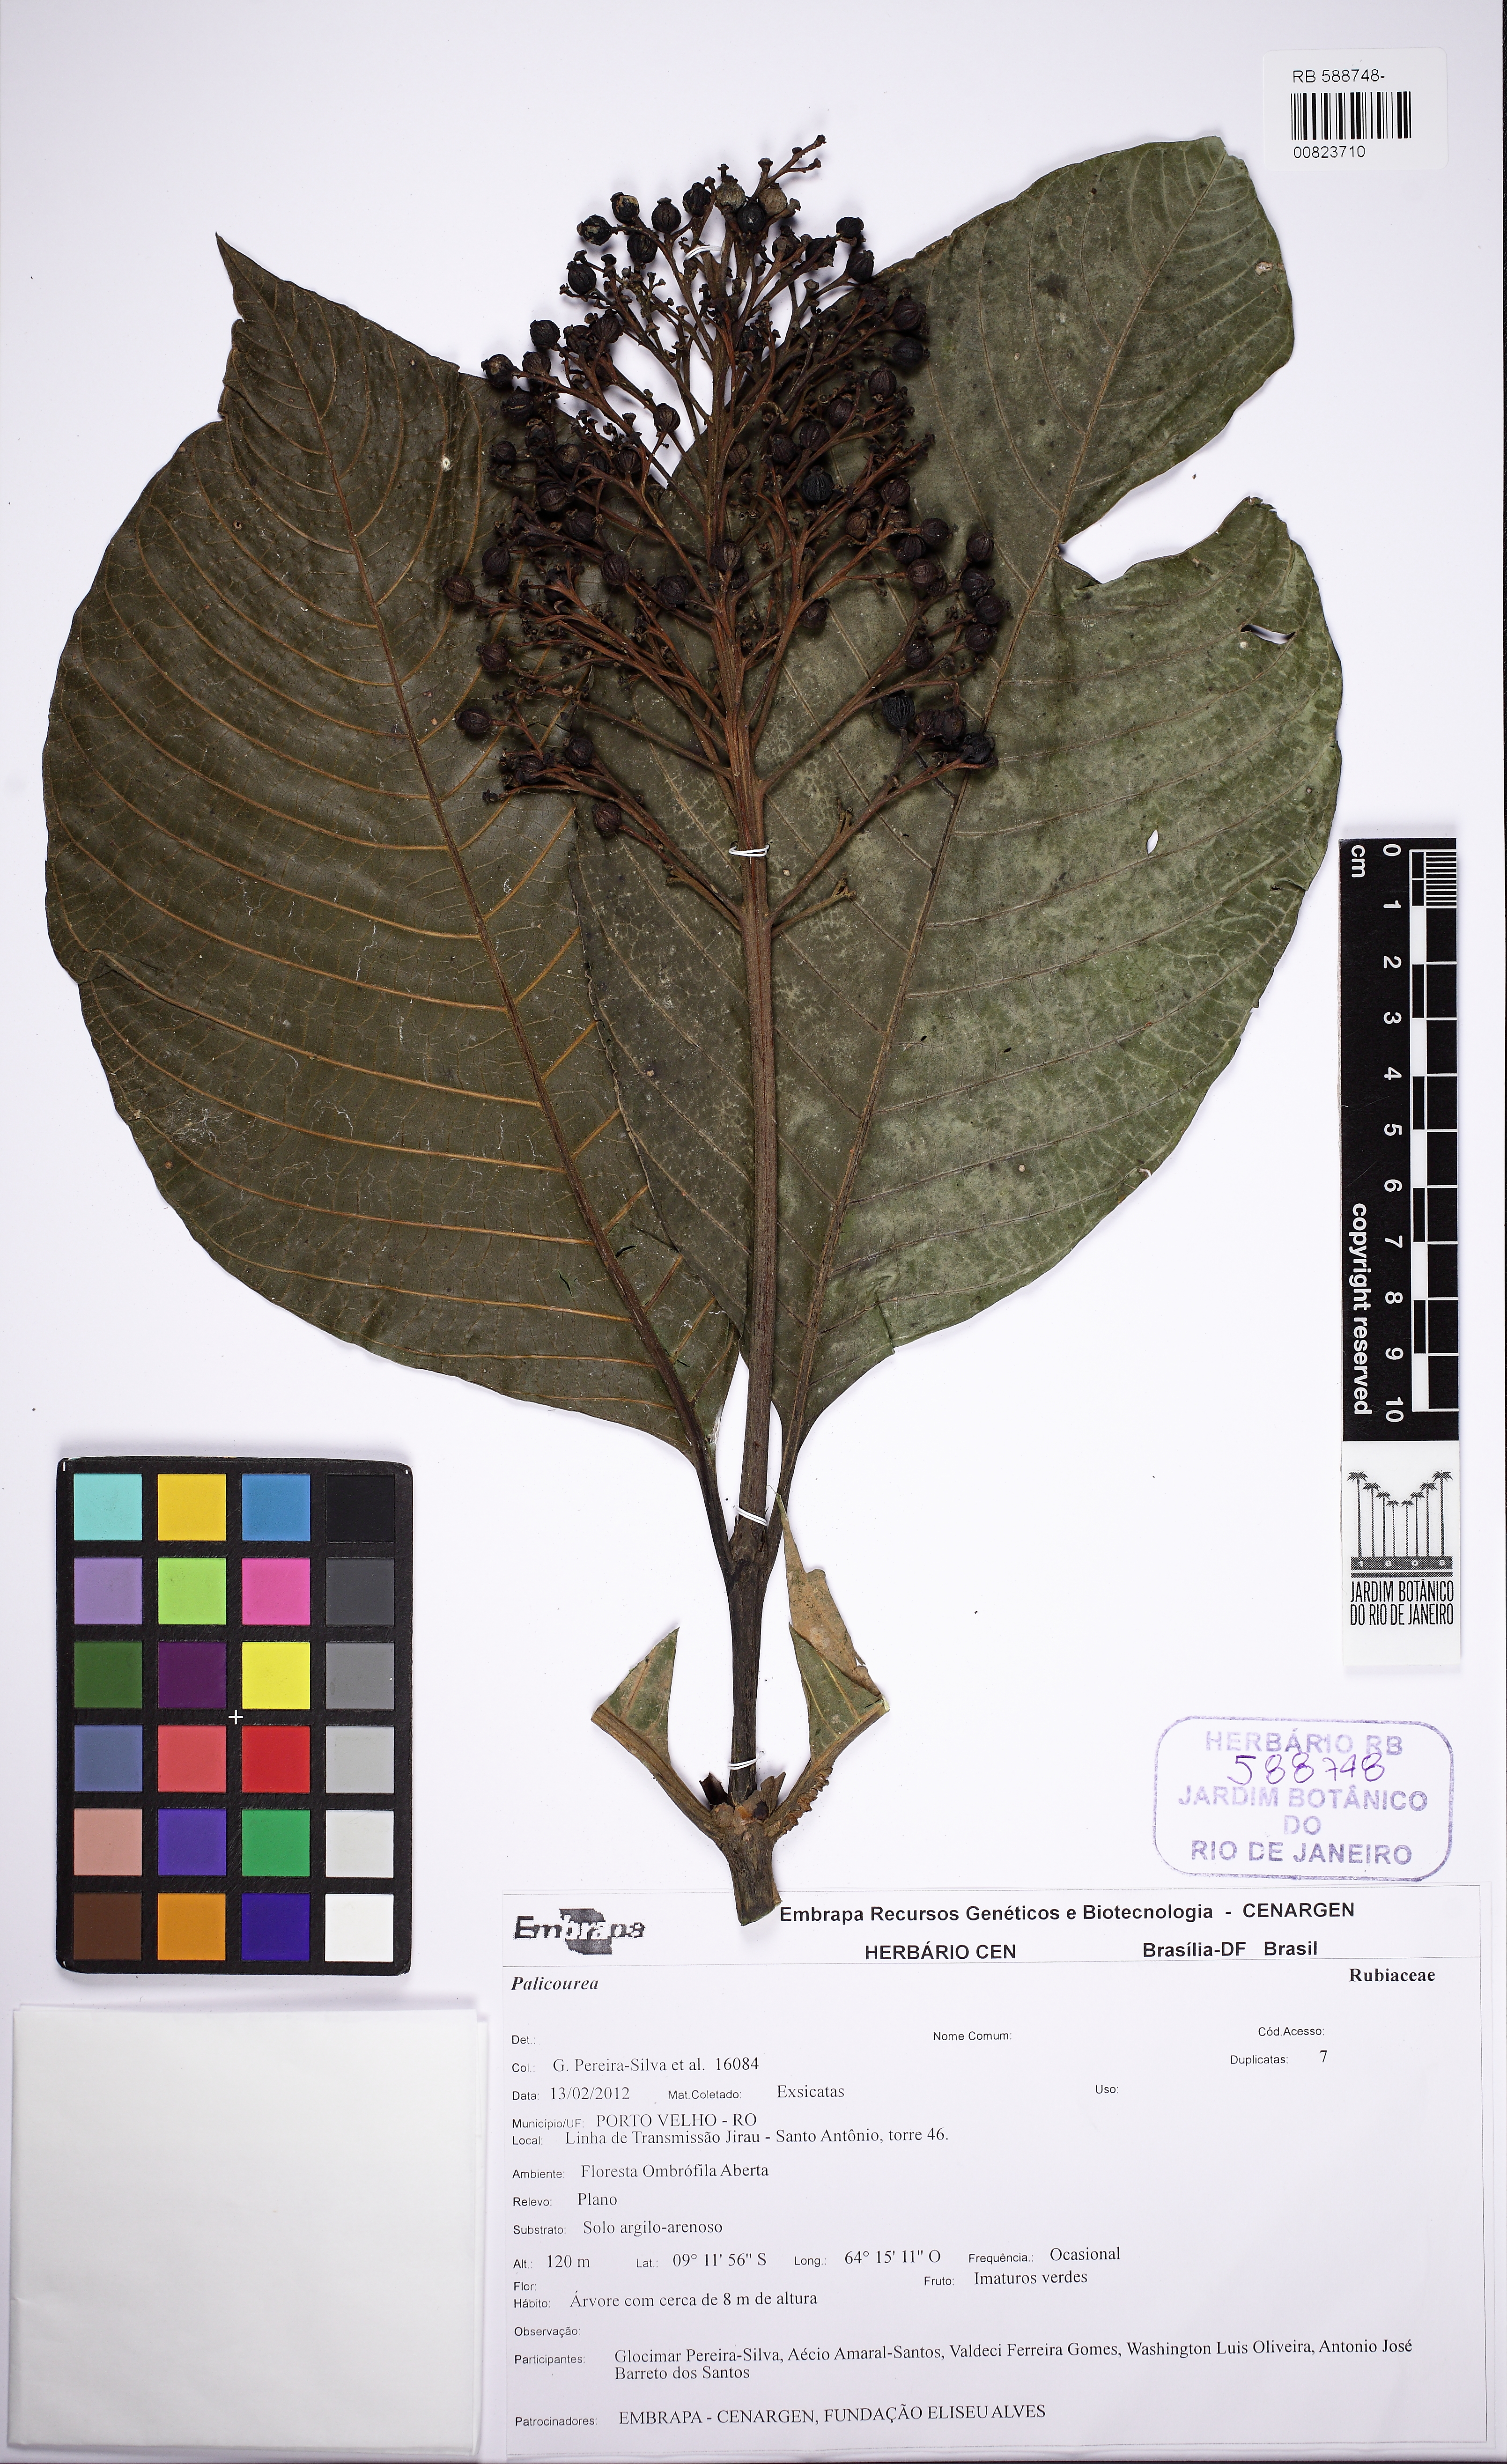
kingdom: Plantae
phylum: Tracheophyta
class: Magnoliopsida
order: Gentianales
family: Rubiaceae
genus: Palicourea
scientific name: Palicourea
